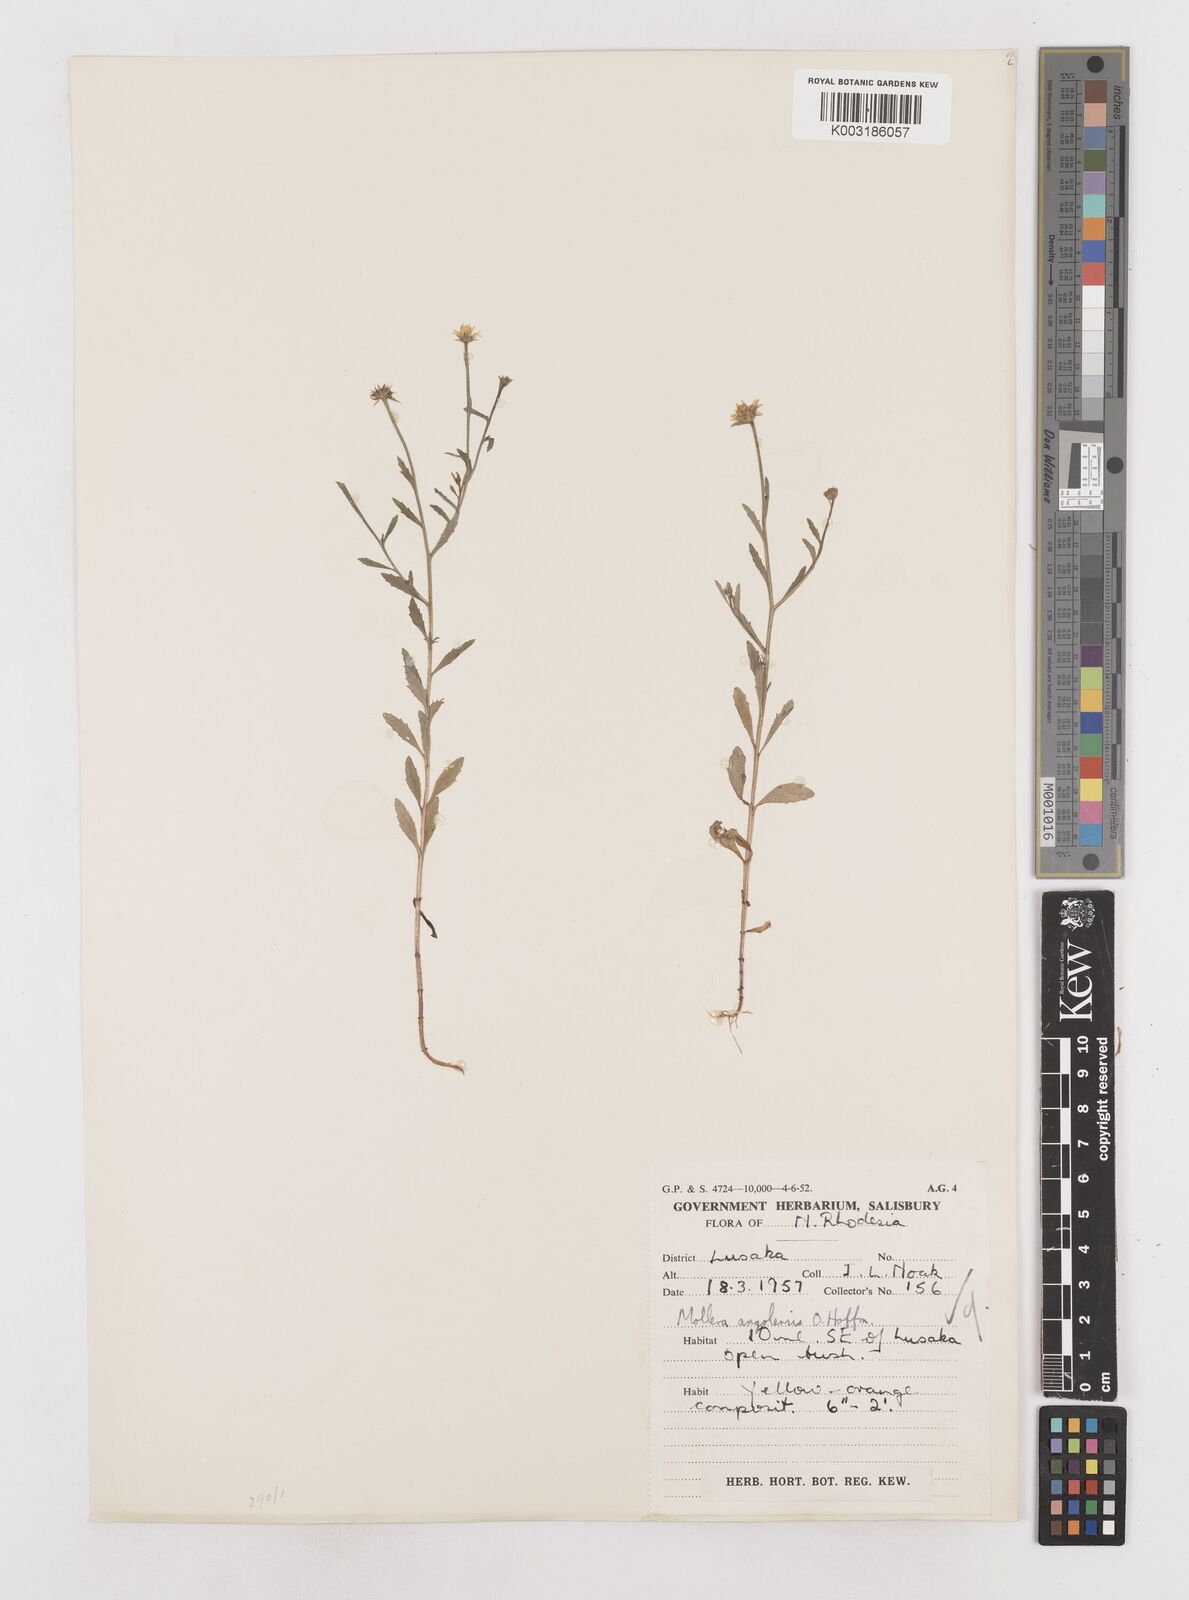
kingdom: Plantae
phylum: Tracheophyta
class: Magnoliopsida
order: Asterales
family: Asteraceae
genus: Calostephane
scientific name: Calostephane angolensis
